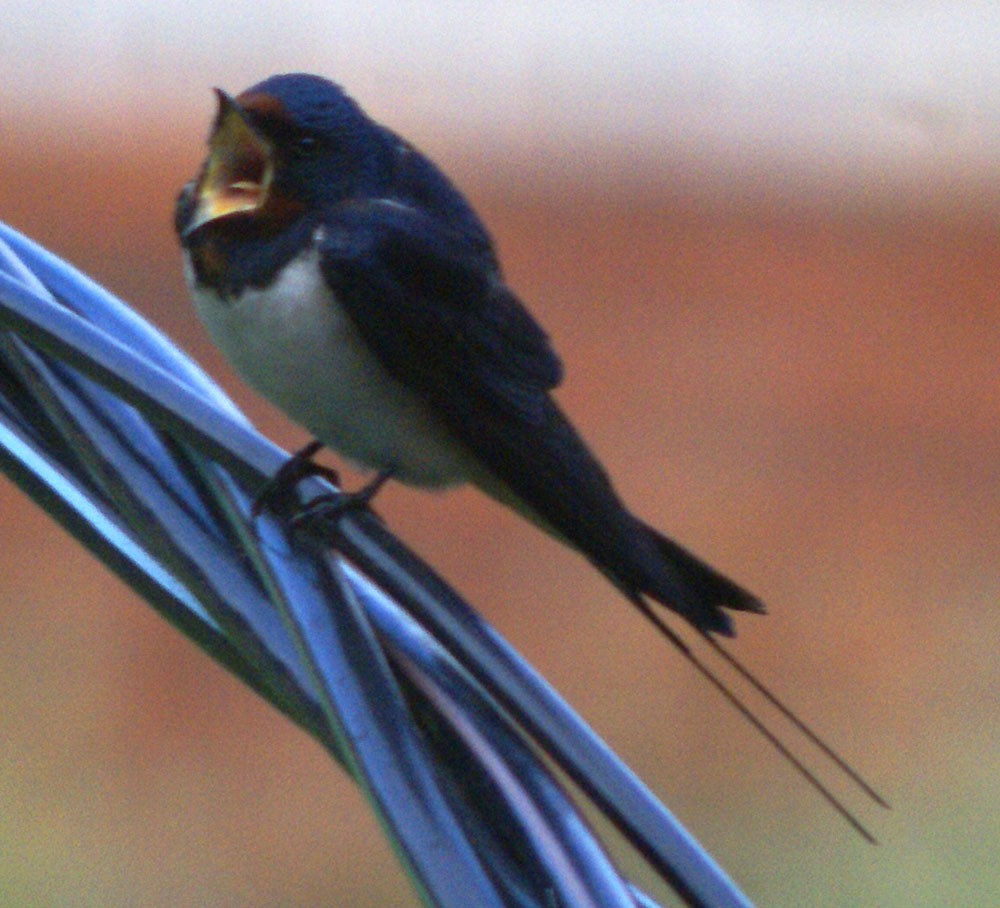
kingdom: Animalia
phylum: Chordata
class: Aves
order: Passeriformes
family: Hirundinidae
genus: Hirundo
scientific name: Hirundo rustica
